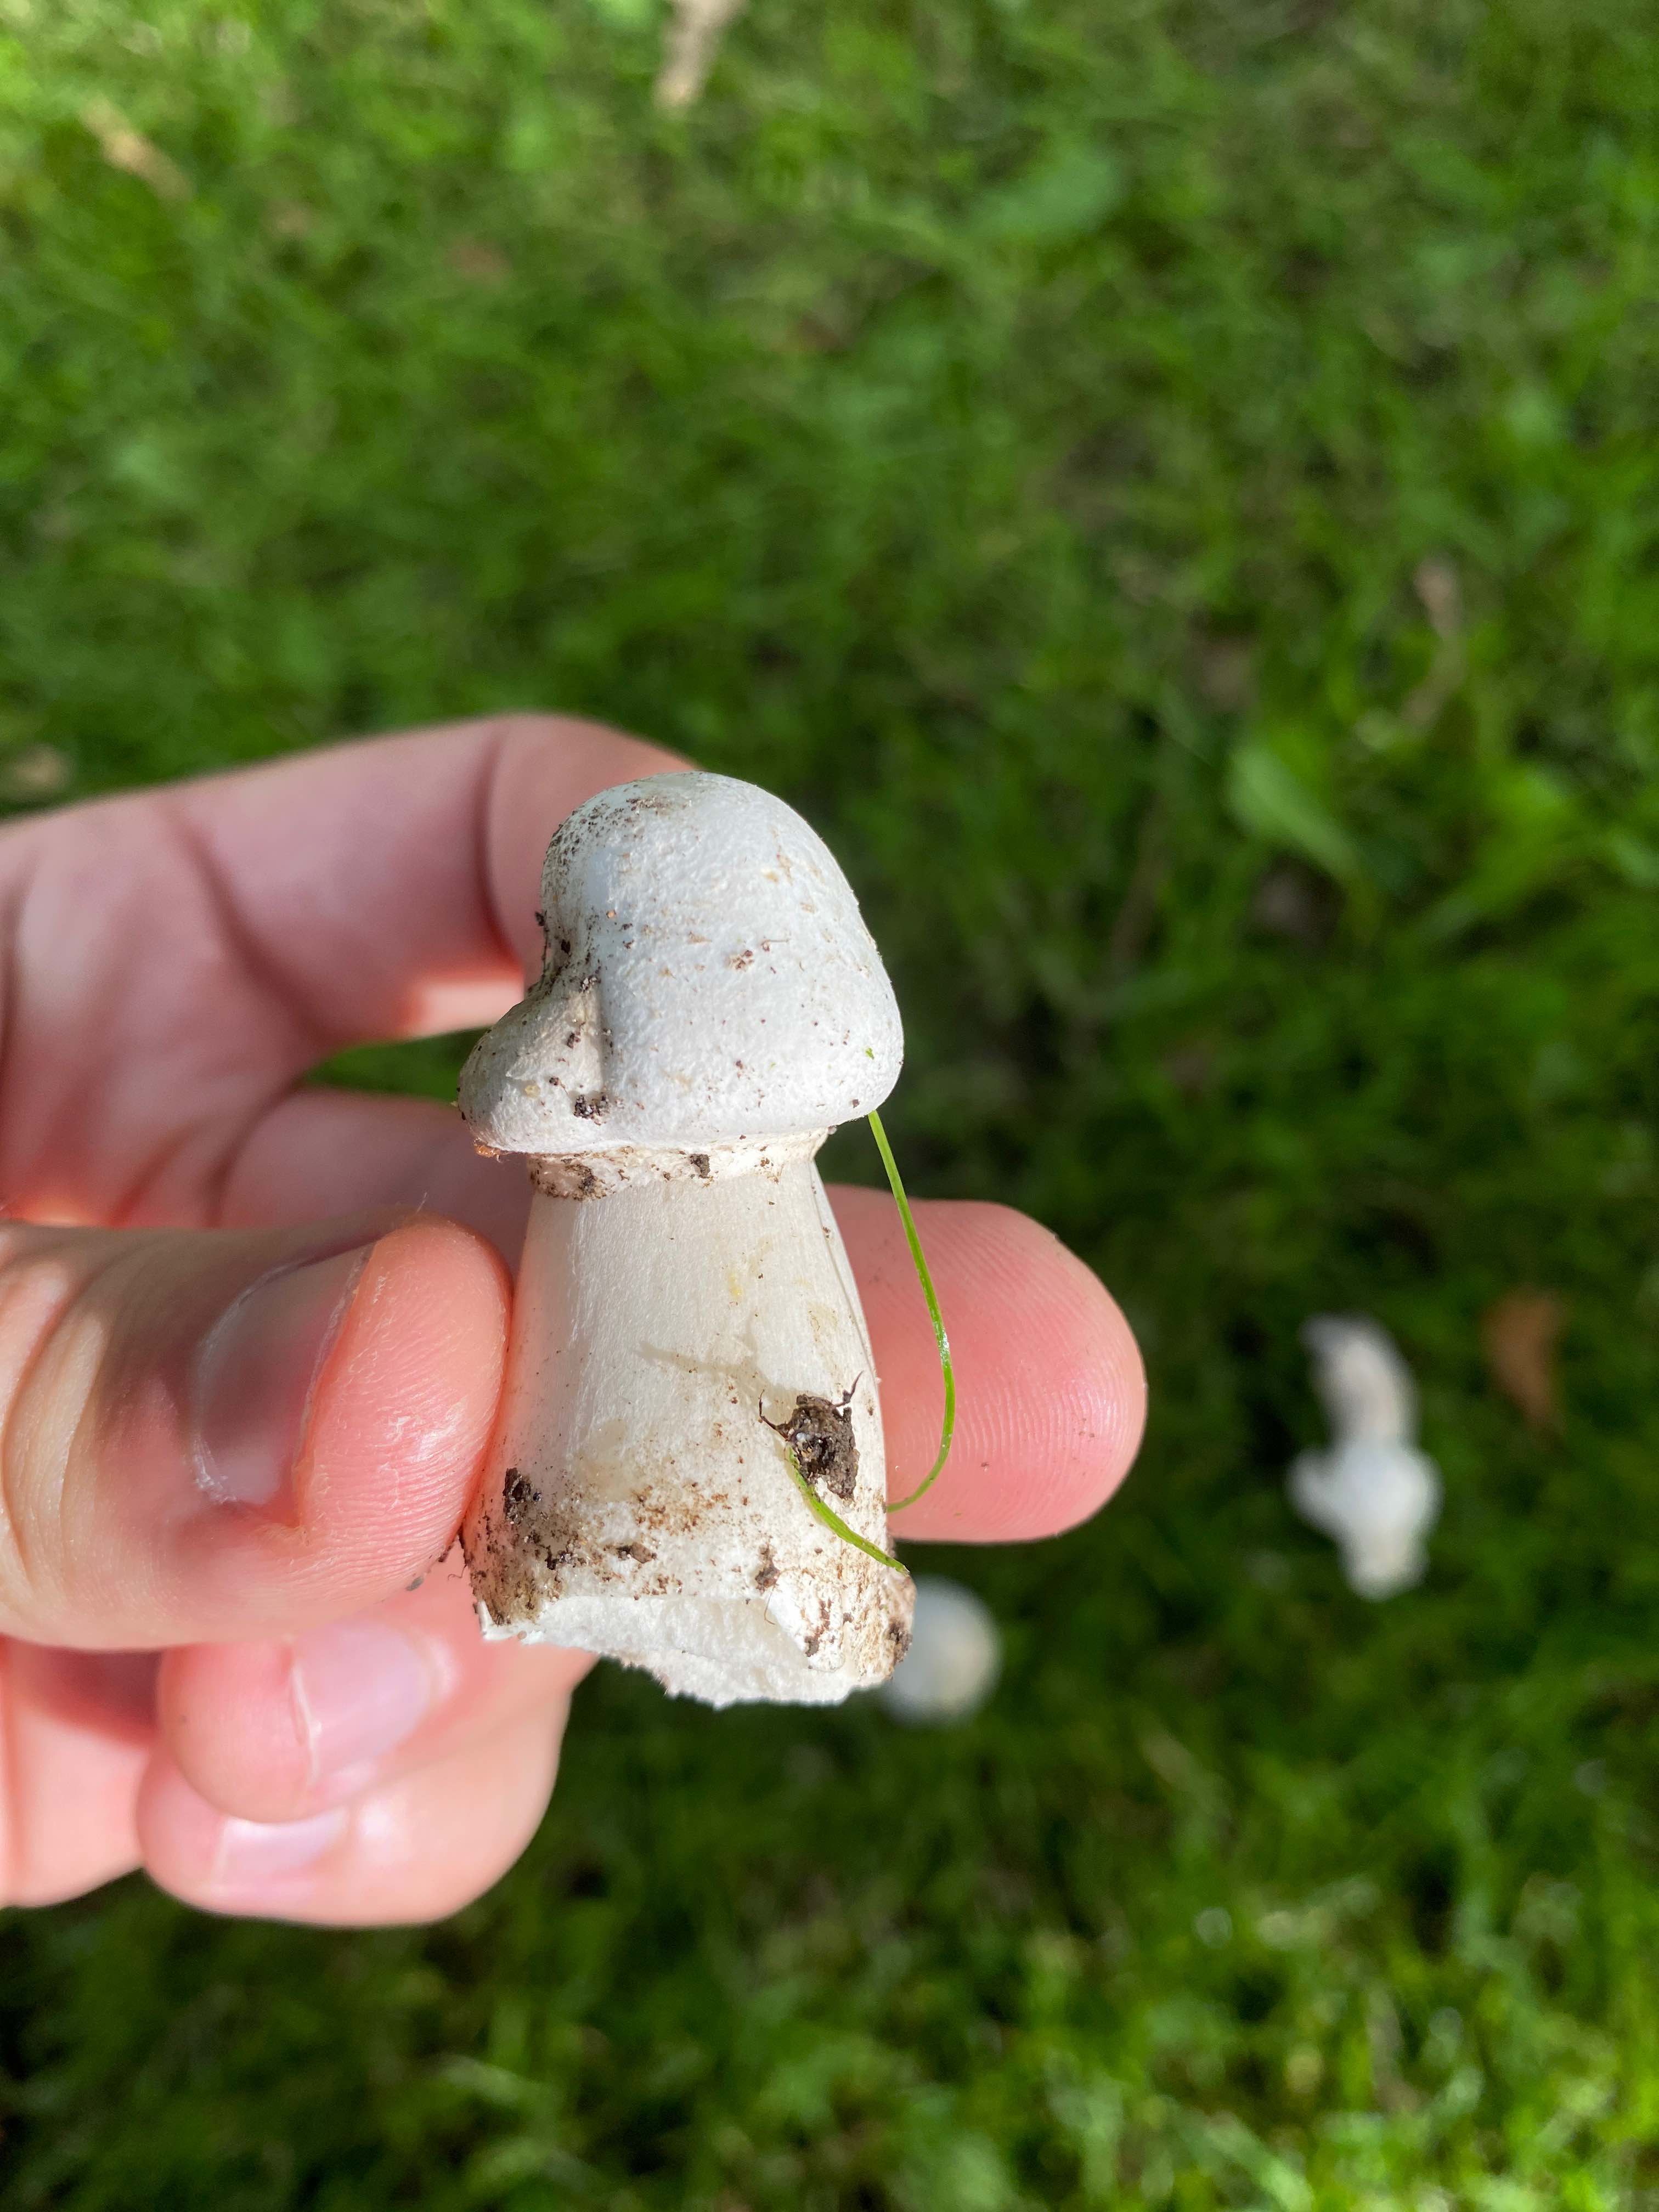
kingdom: Fungi
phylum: Basidiomycota
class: Agaricomycetes
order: Agaricales
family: Agaricaceae
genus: Agaricus
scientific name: Agaricus
